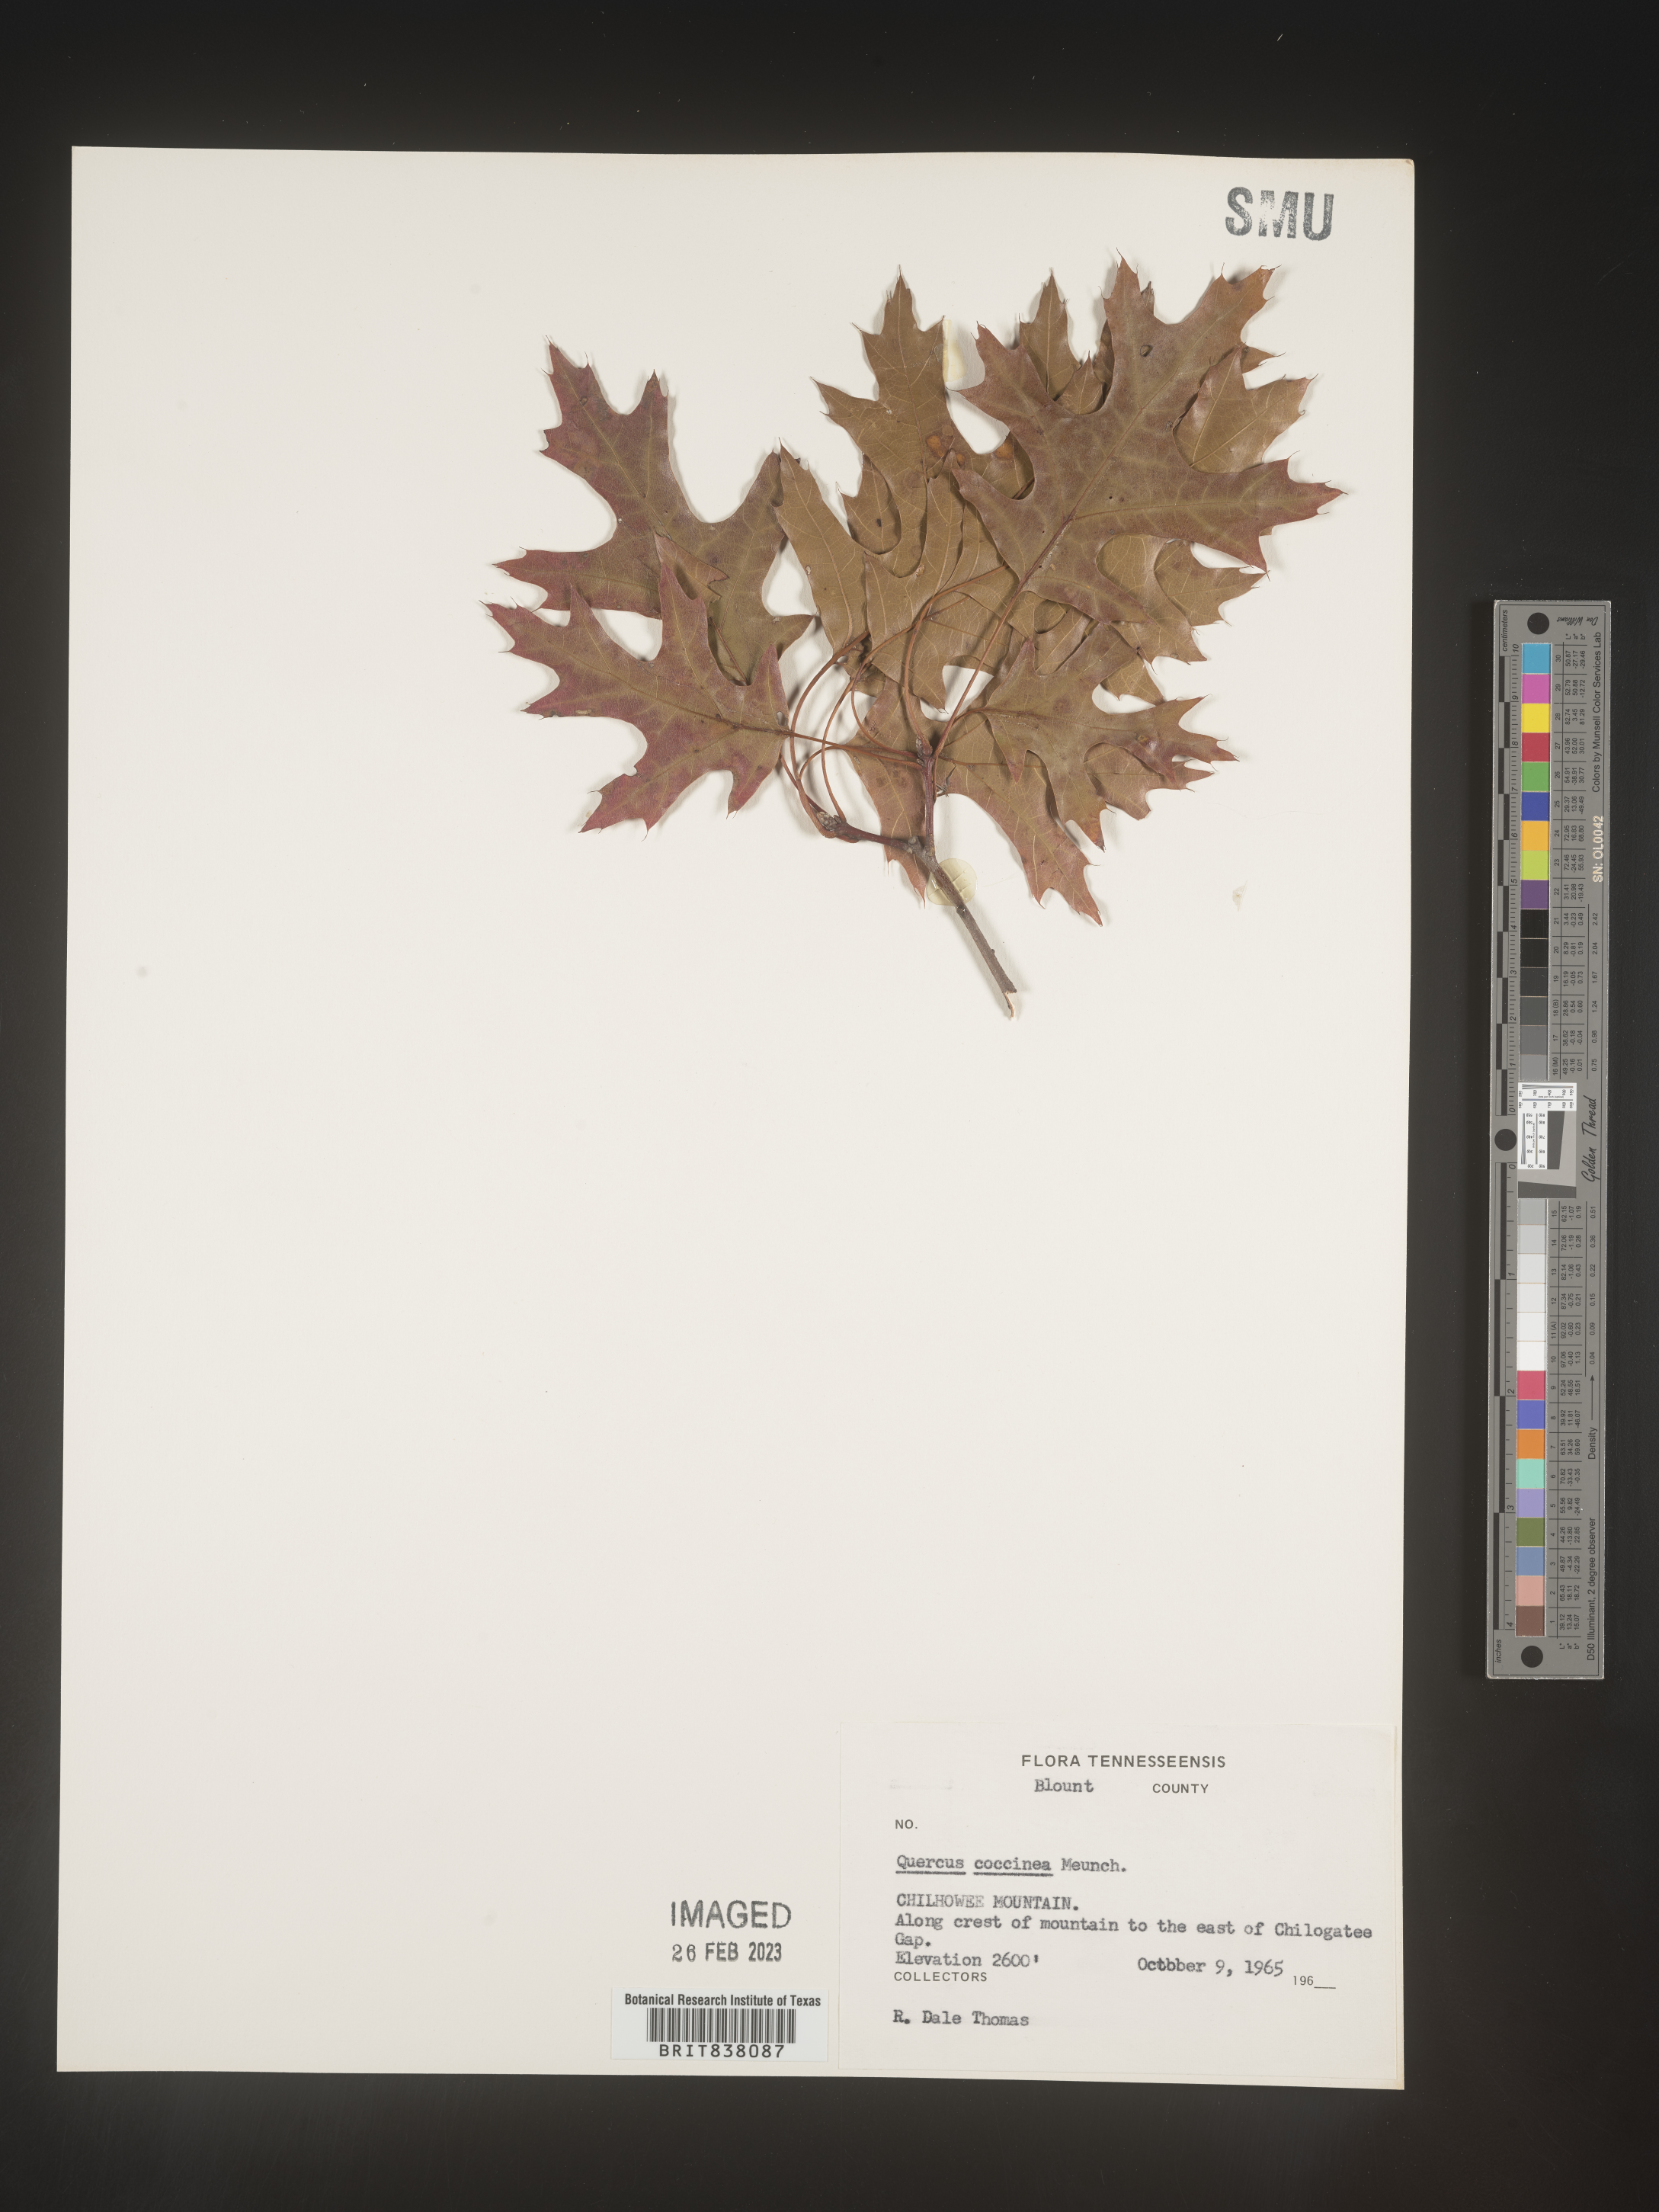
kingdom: Plantae
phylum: Tracheophyta
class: Magnoliopsida
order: Fagales
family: Fagaceae
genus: Quercus
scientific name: Quercus coccinea
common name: Scarlet oak
